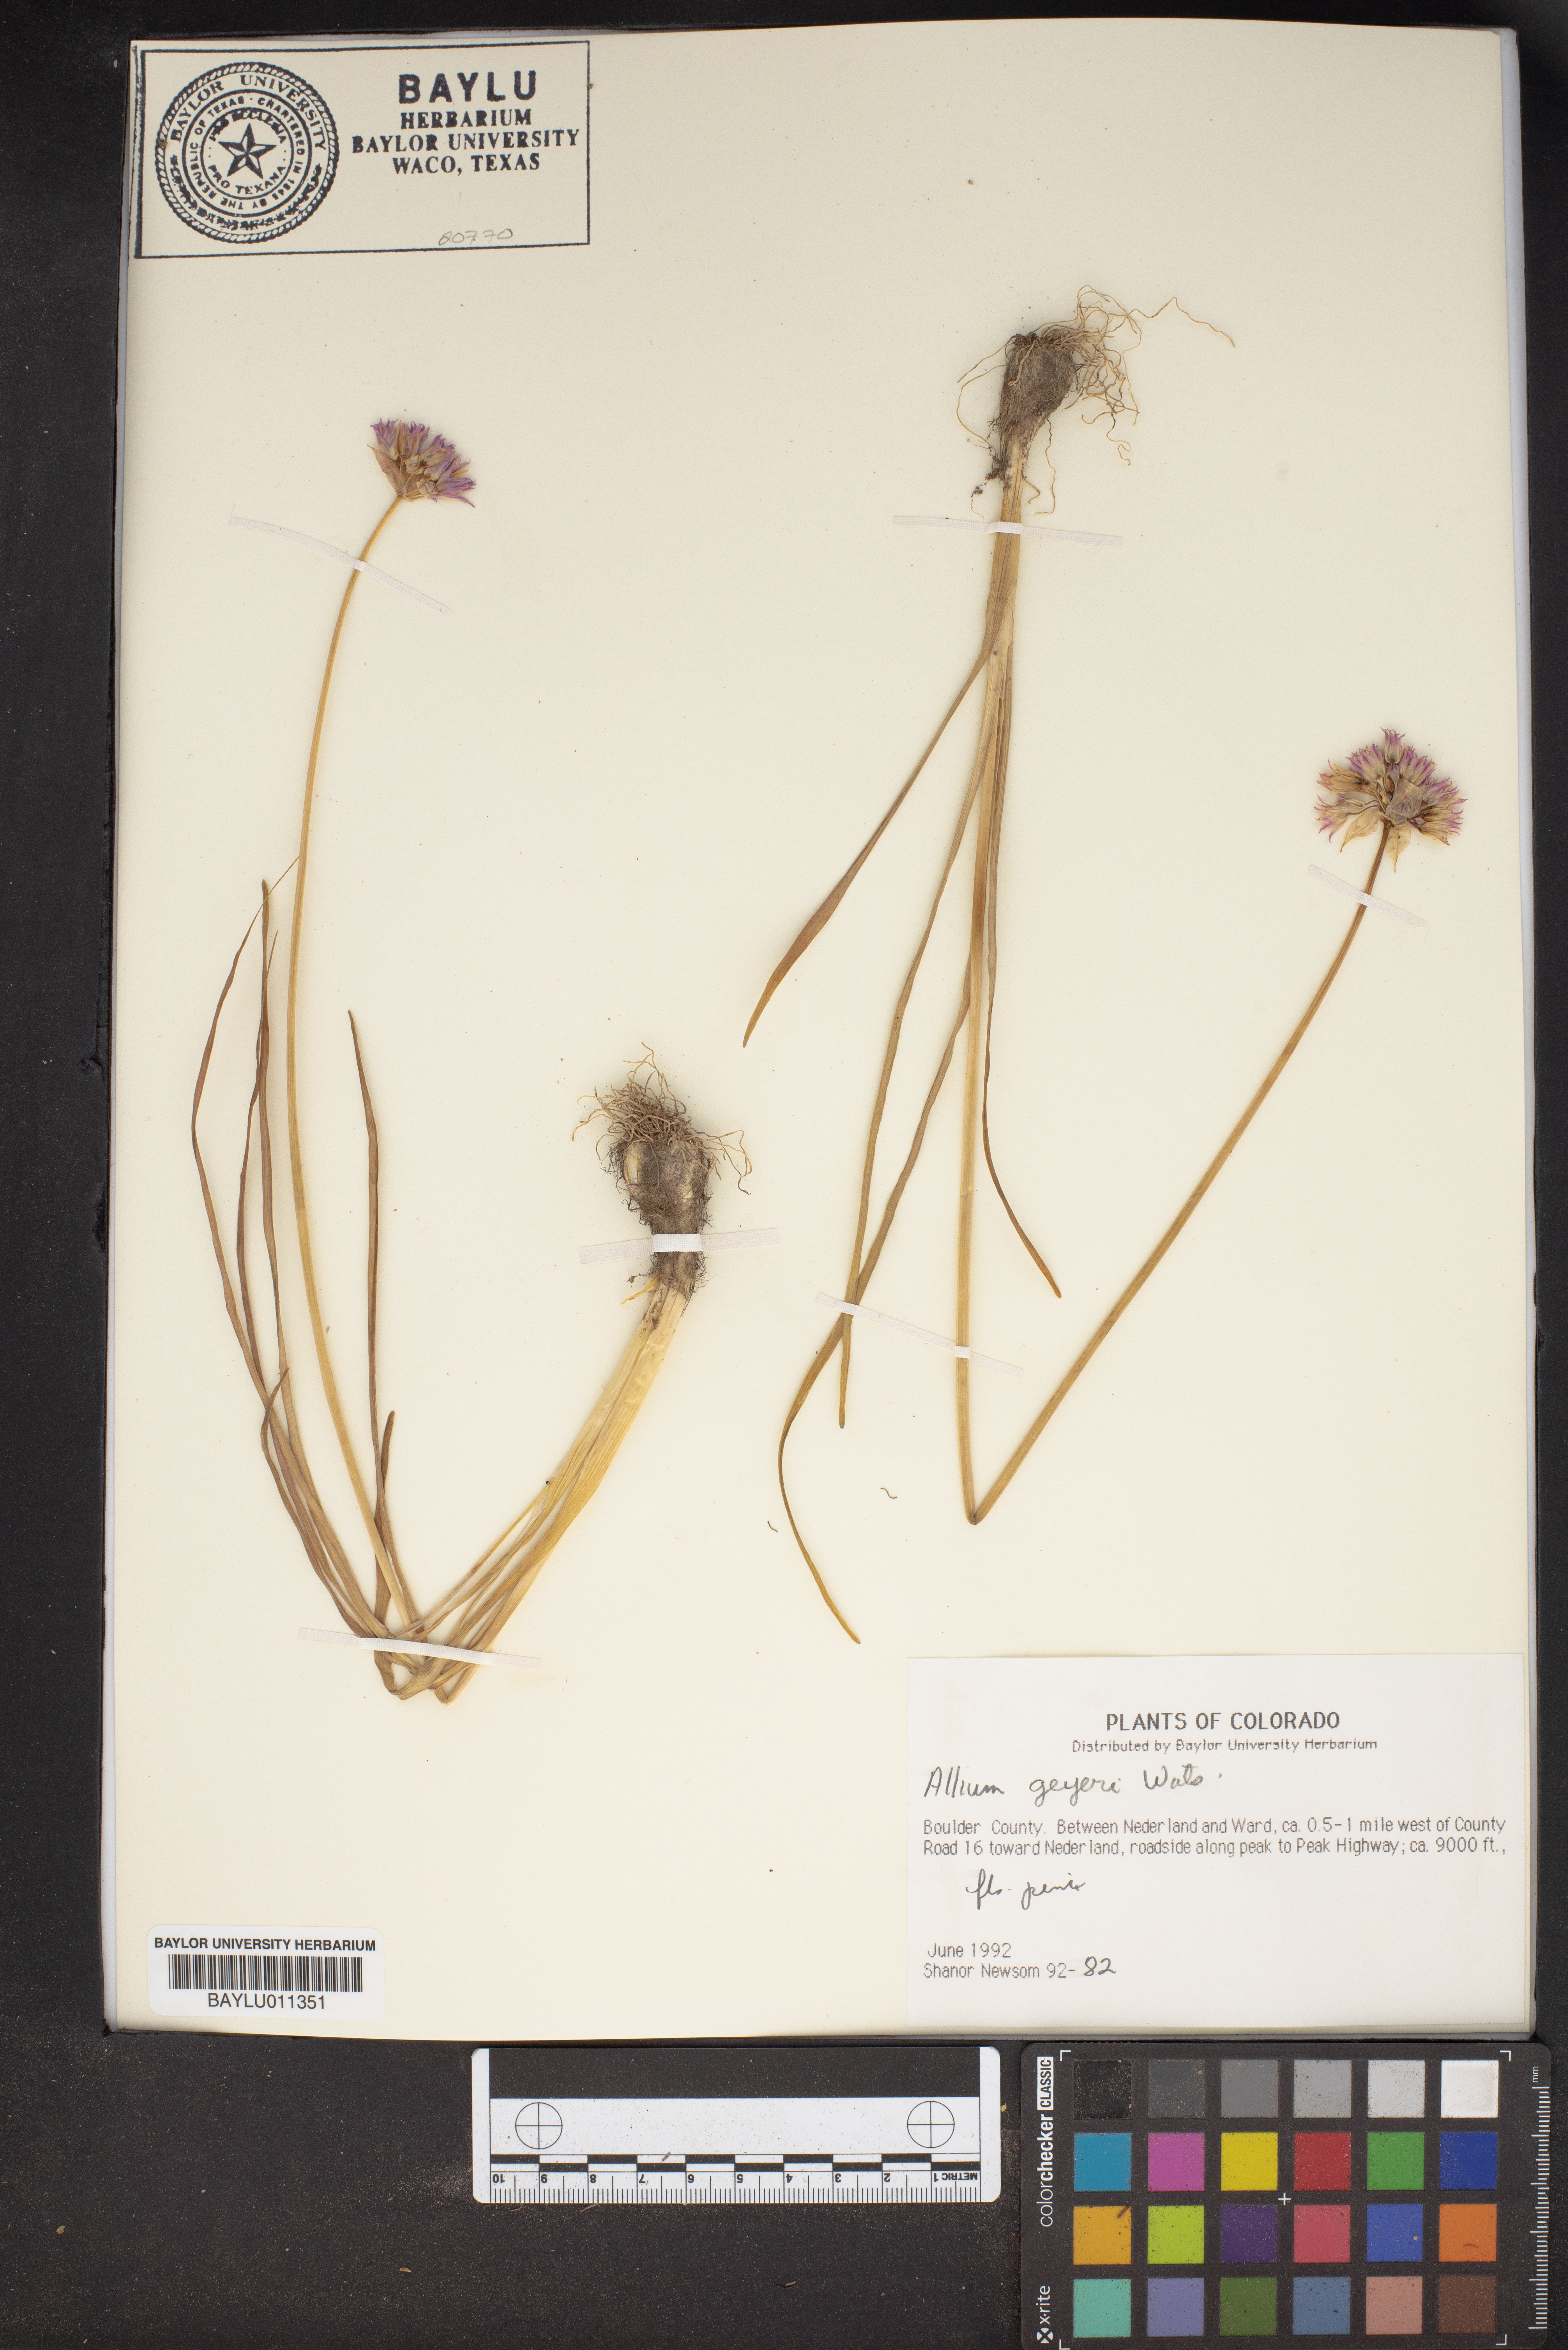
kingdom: Plantae
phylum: Tracheophyta
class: Liliopsida
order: Asparagales
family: Amaryllidaceae
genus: Allium
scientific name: Allium geyeri
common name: Geyer's onion
